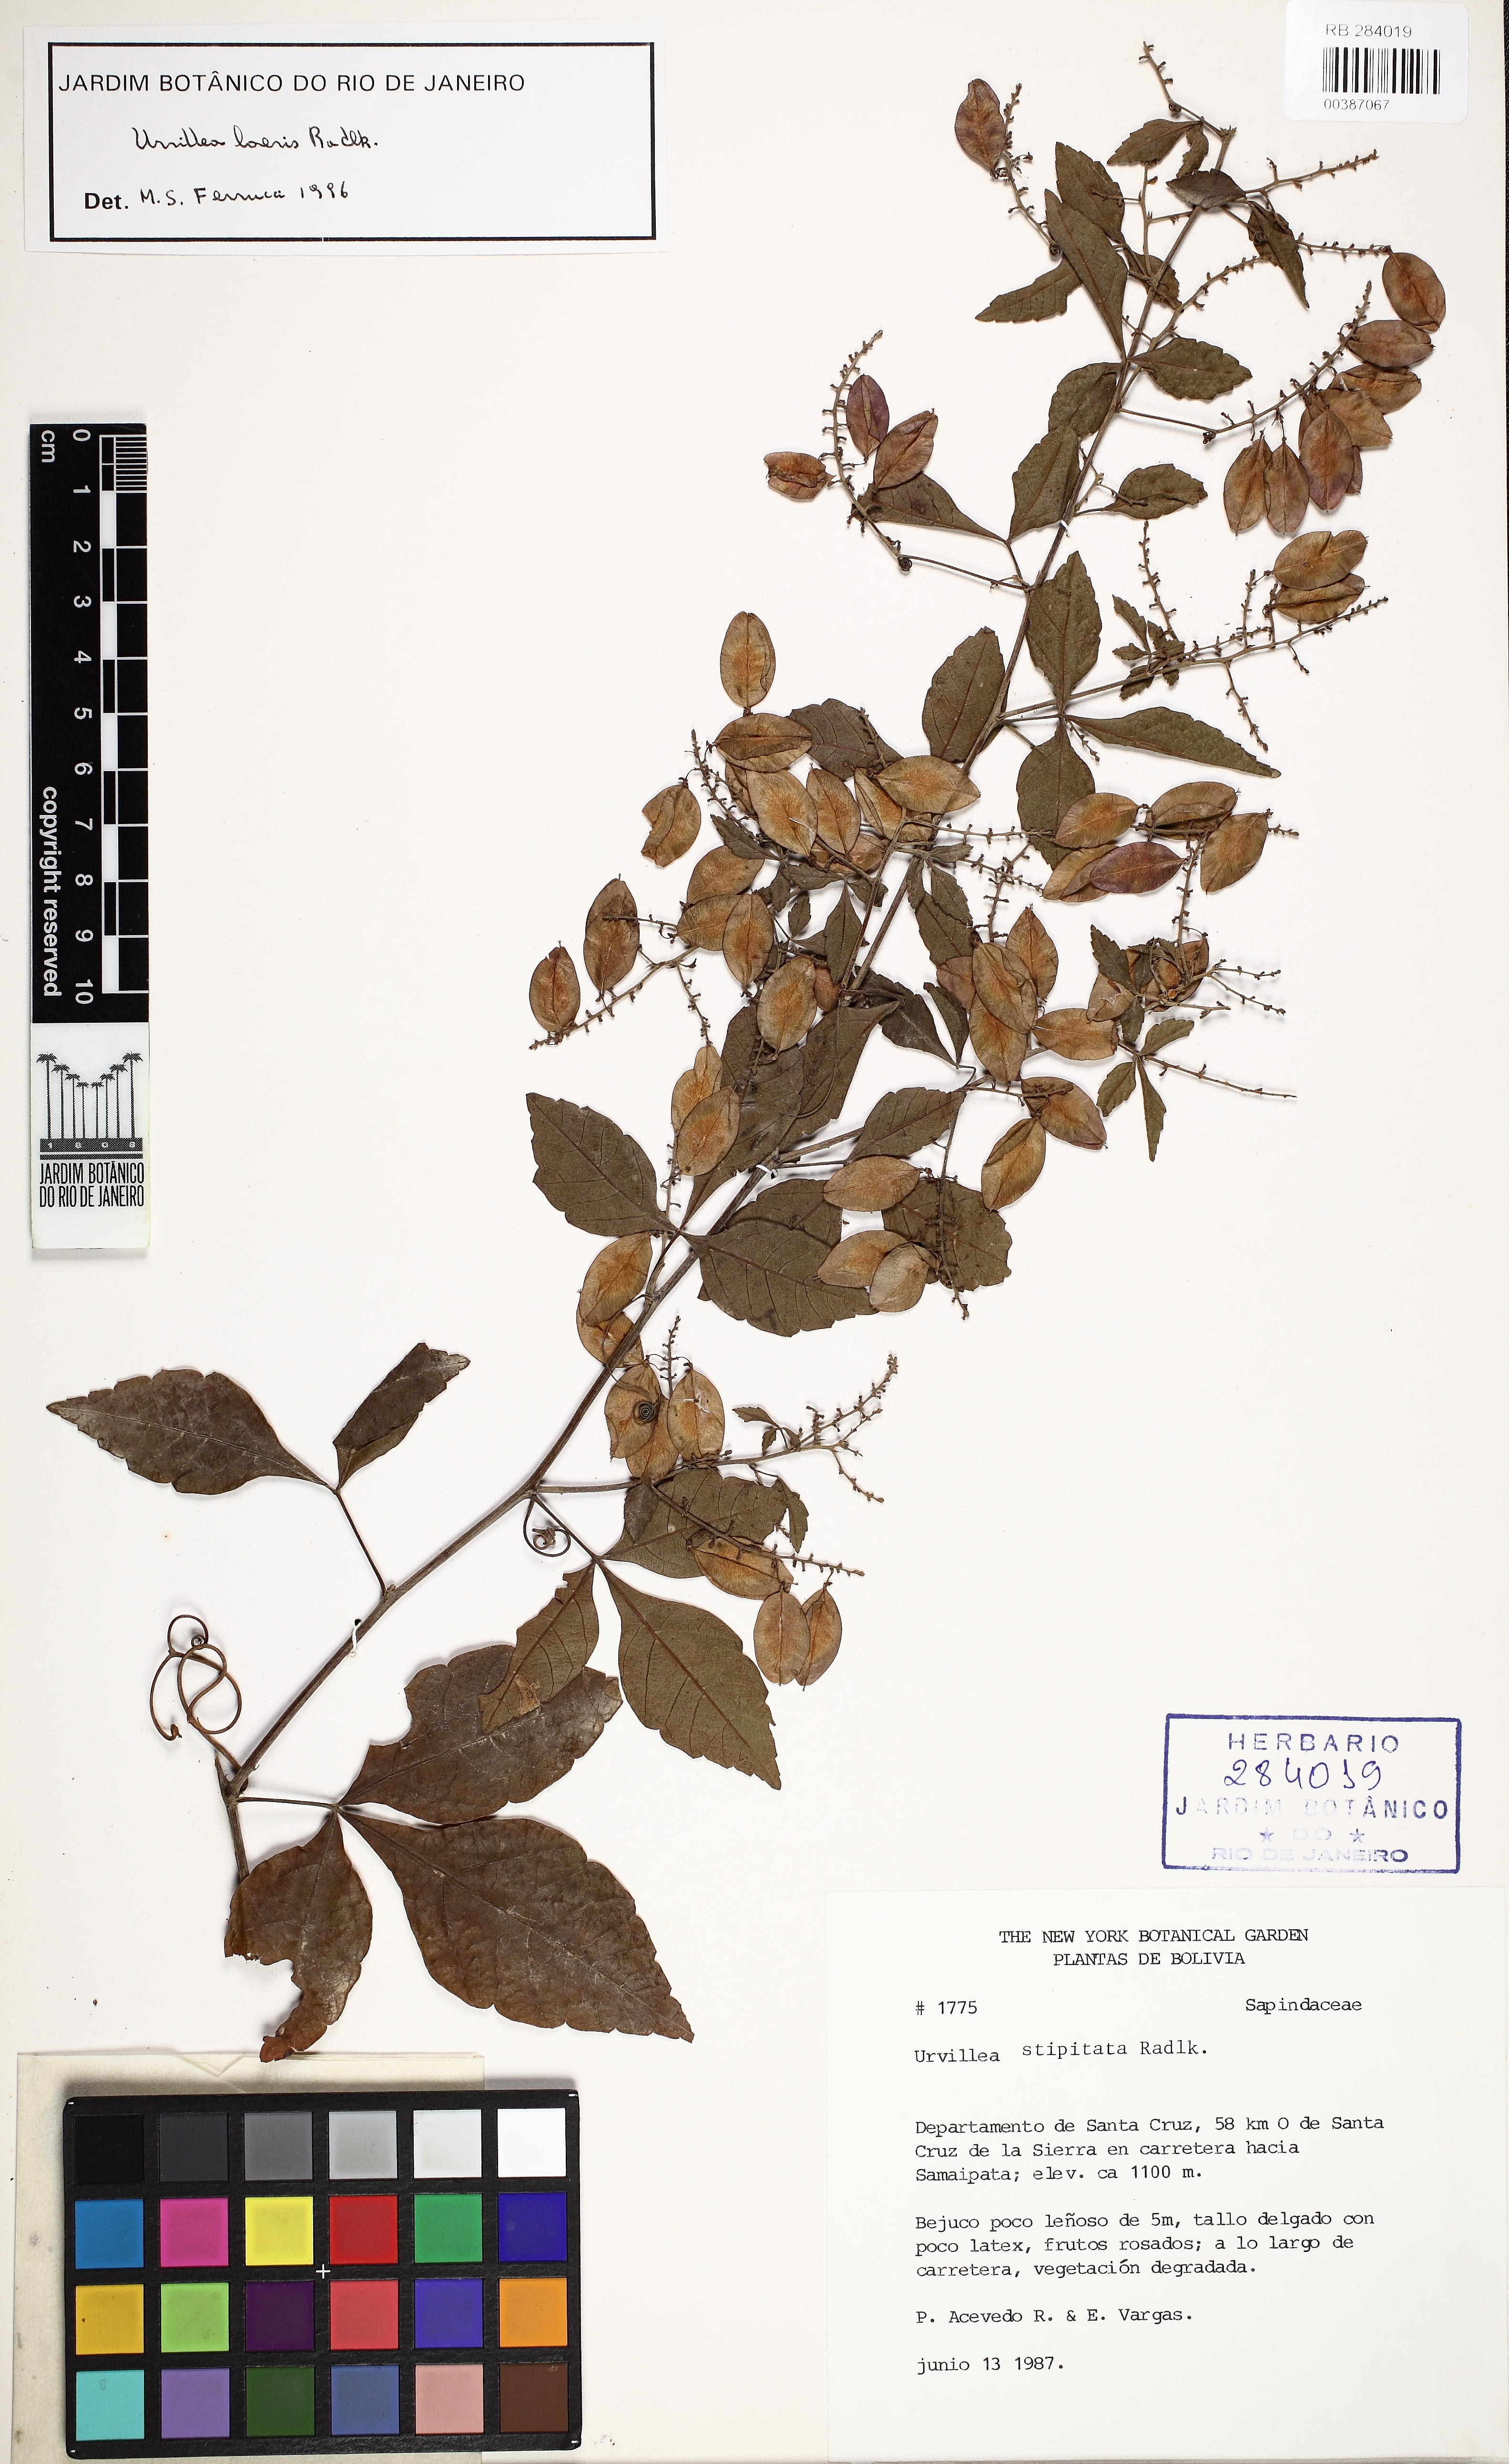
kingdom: Plantae
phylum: Tracheophyta
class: Magnoliopsida
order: Sapindales
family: Sapindaceae
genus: Urvillea
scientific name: Urvillea stipitata
